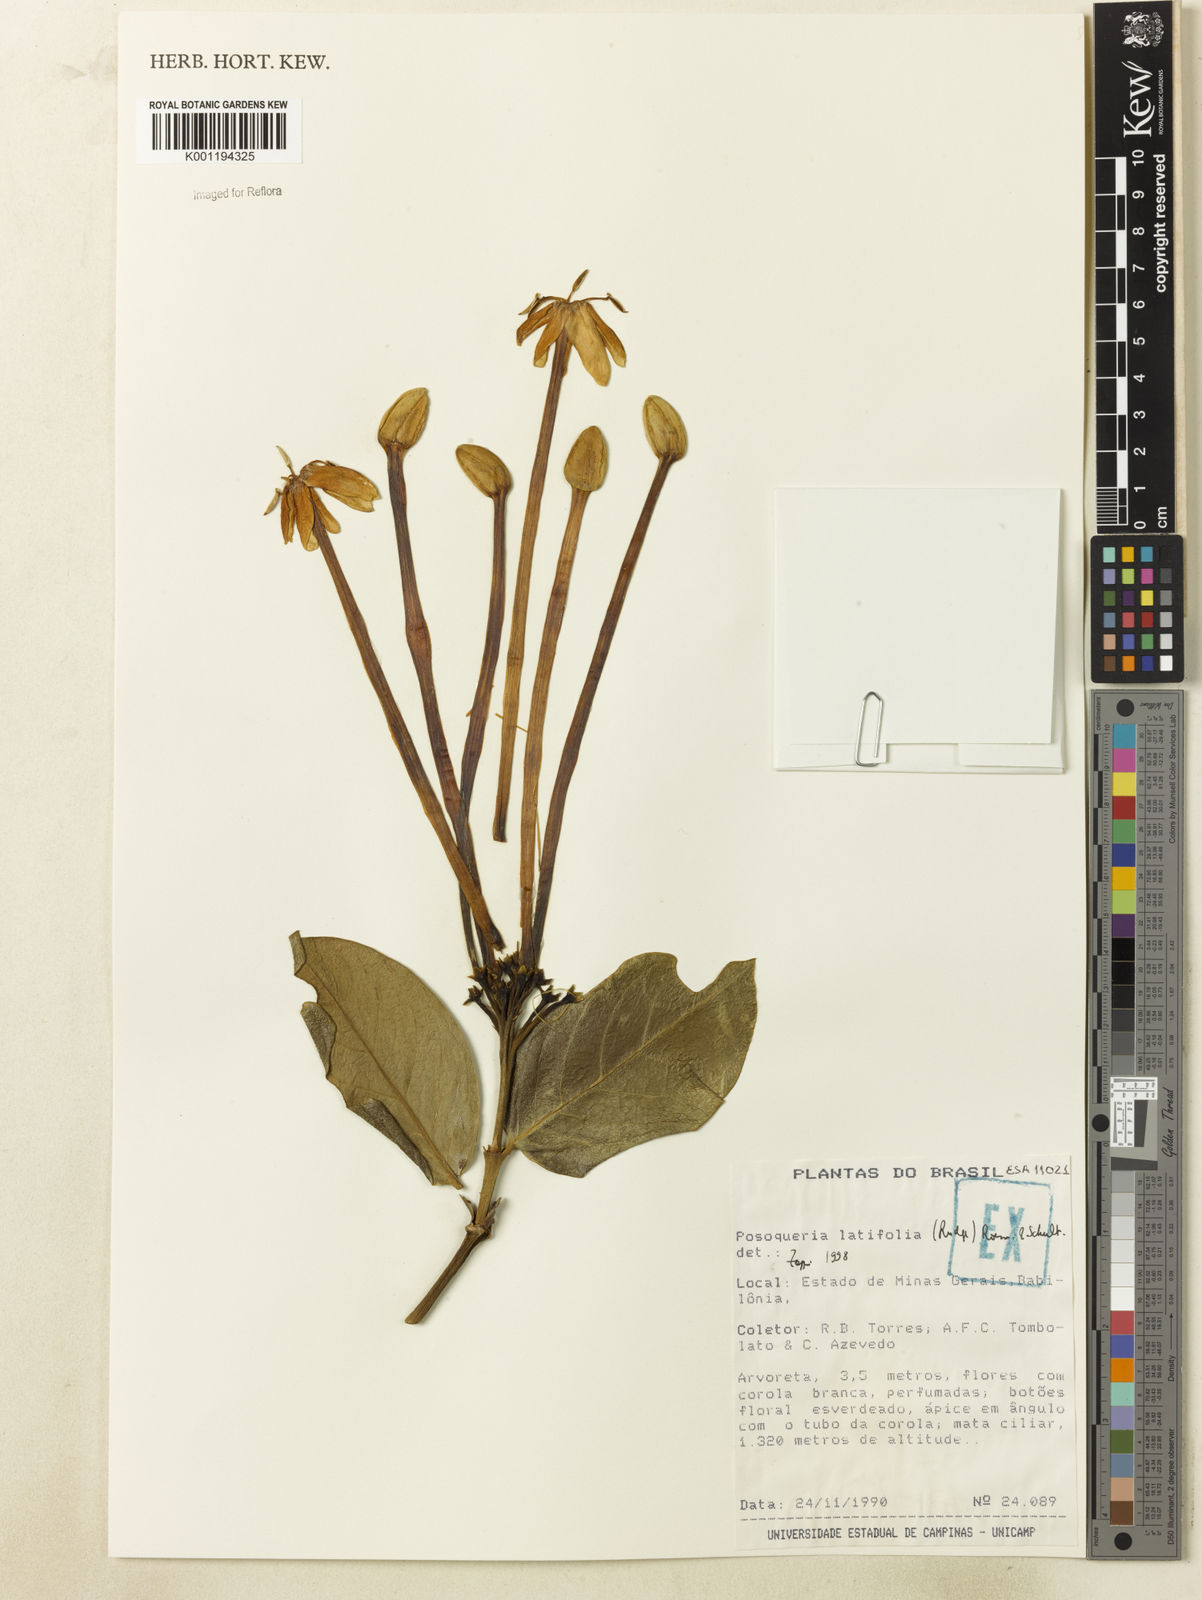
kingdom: Plantae
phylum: Tracheophyta
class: Magnoliopsida
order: Gentianales
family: Rubiaceae
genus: Posoqueria
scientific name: Posoqueria latifolia
